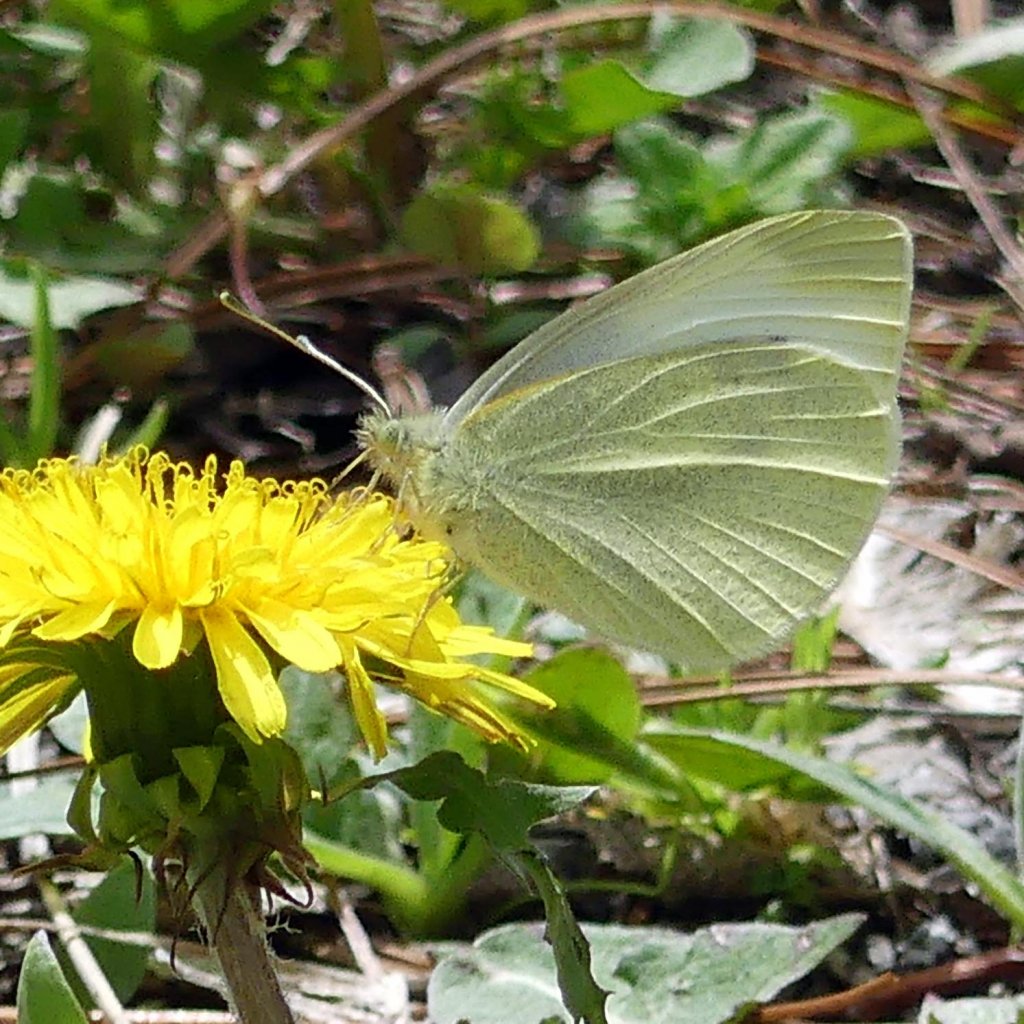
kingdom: Animalia
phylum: Arthropoda
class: Insecta
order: Lepidoptera
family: Pieridae
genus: Pieris
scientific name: Pieris rapae
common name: Cabbage White
